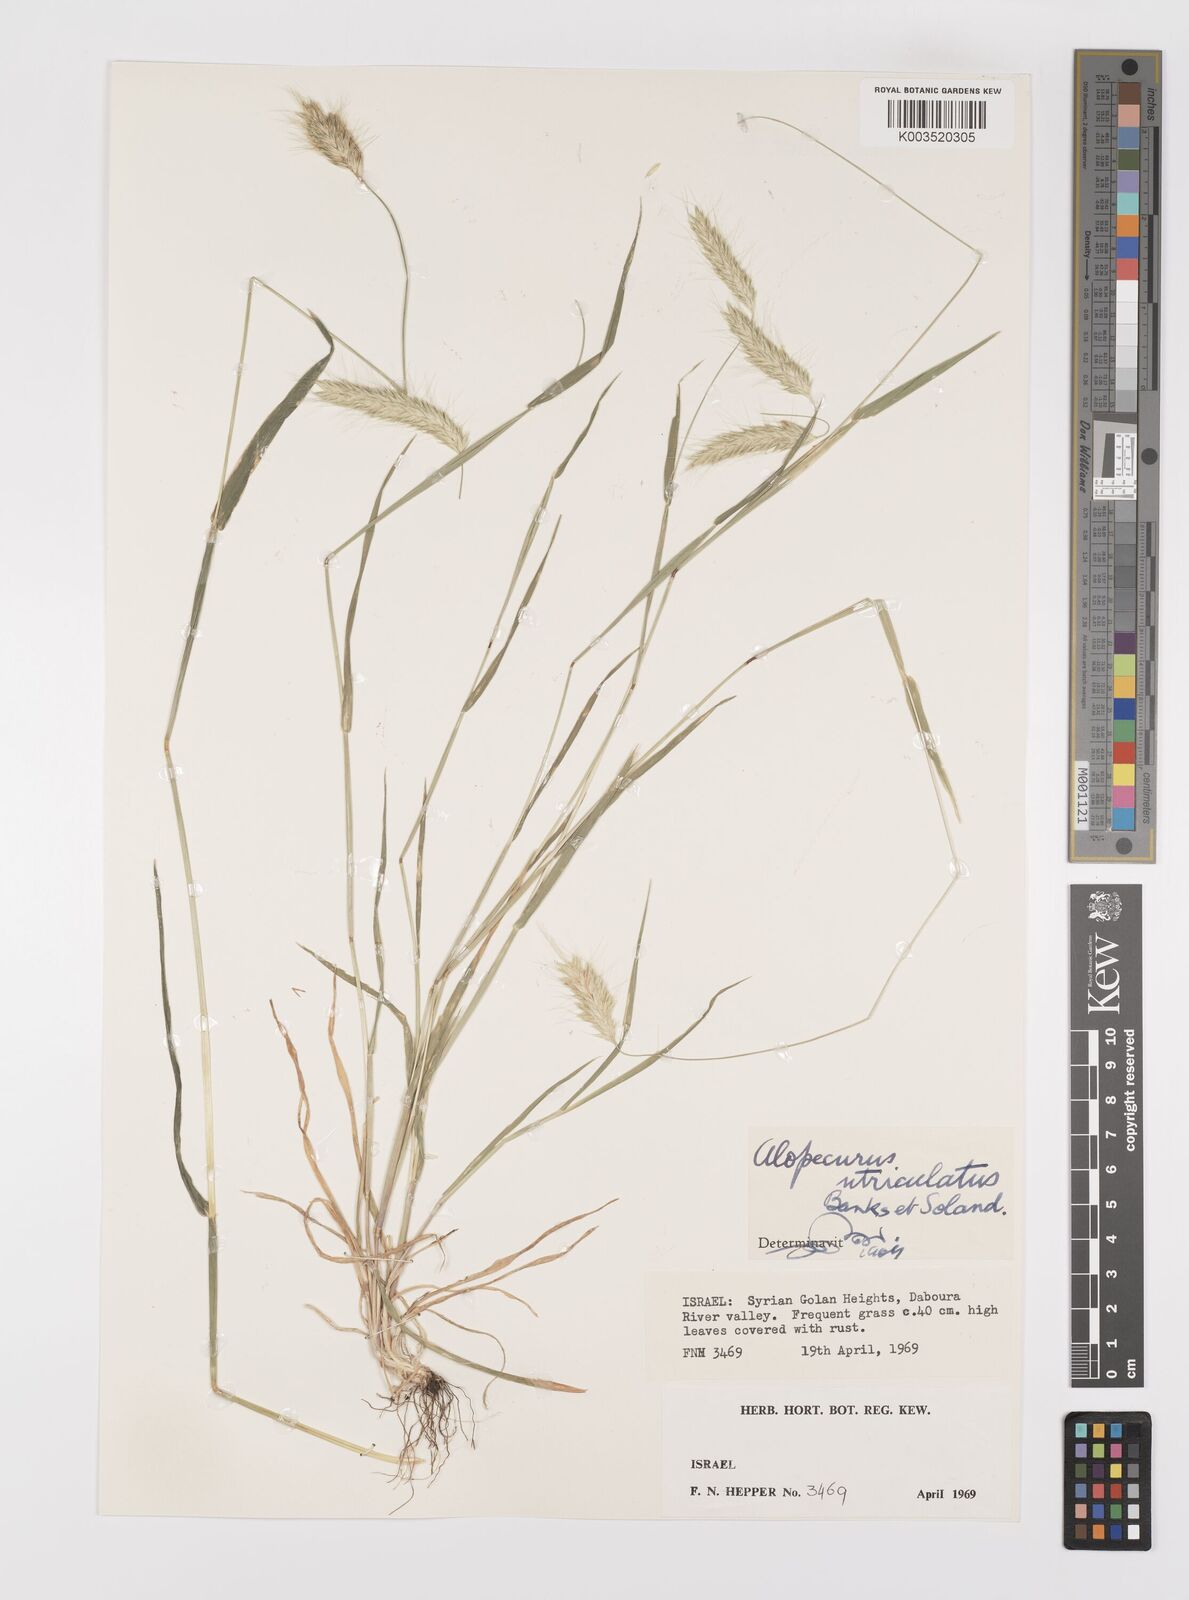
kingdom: Plantae
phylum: Tracheophyta
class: Liliopsida
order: Poales
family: Poaceae
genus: Alopecurus
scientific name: Alopecurus utriculatus
